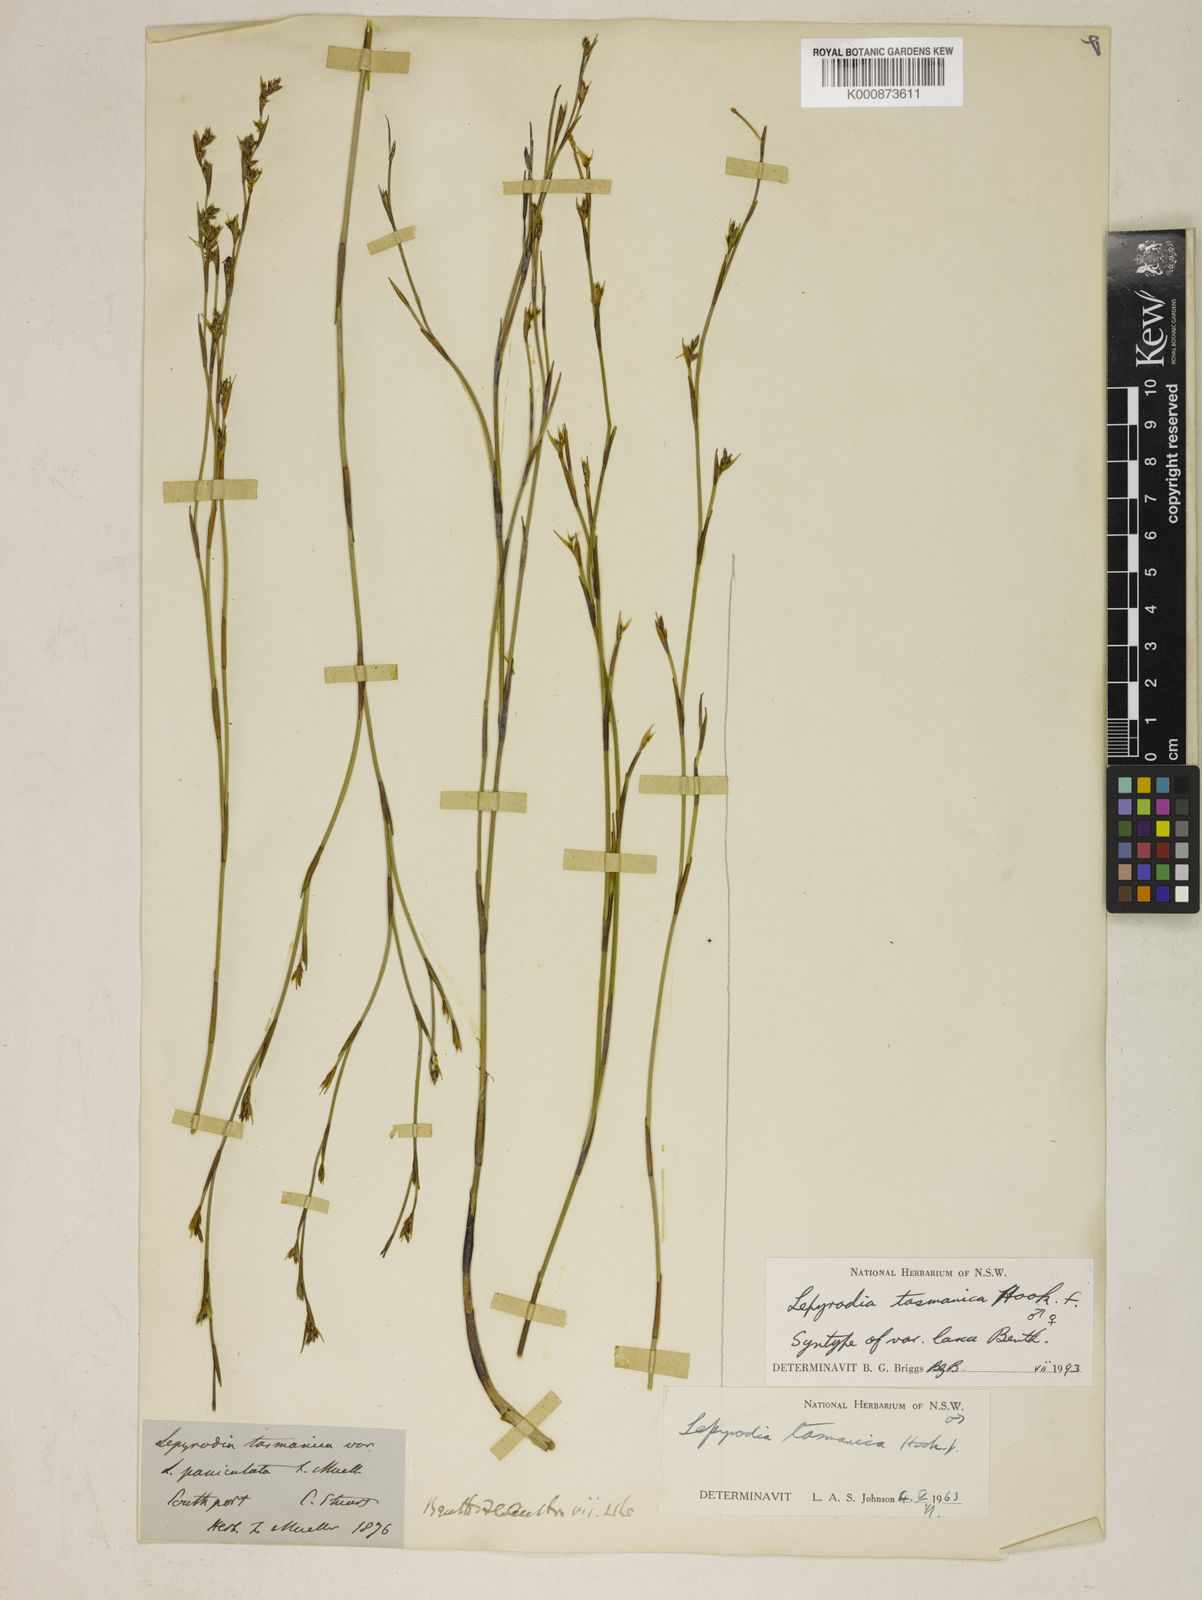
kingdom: Plantae
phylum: Tracheophyta
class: Liliopsida
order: Poales
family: Restionaceae
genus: Sporadanthus
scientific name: Sporadanthus tasmanicus
